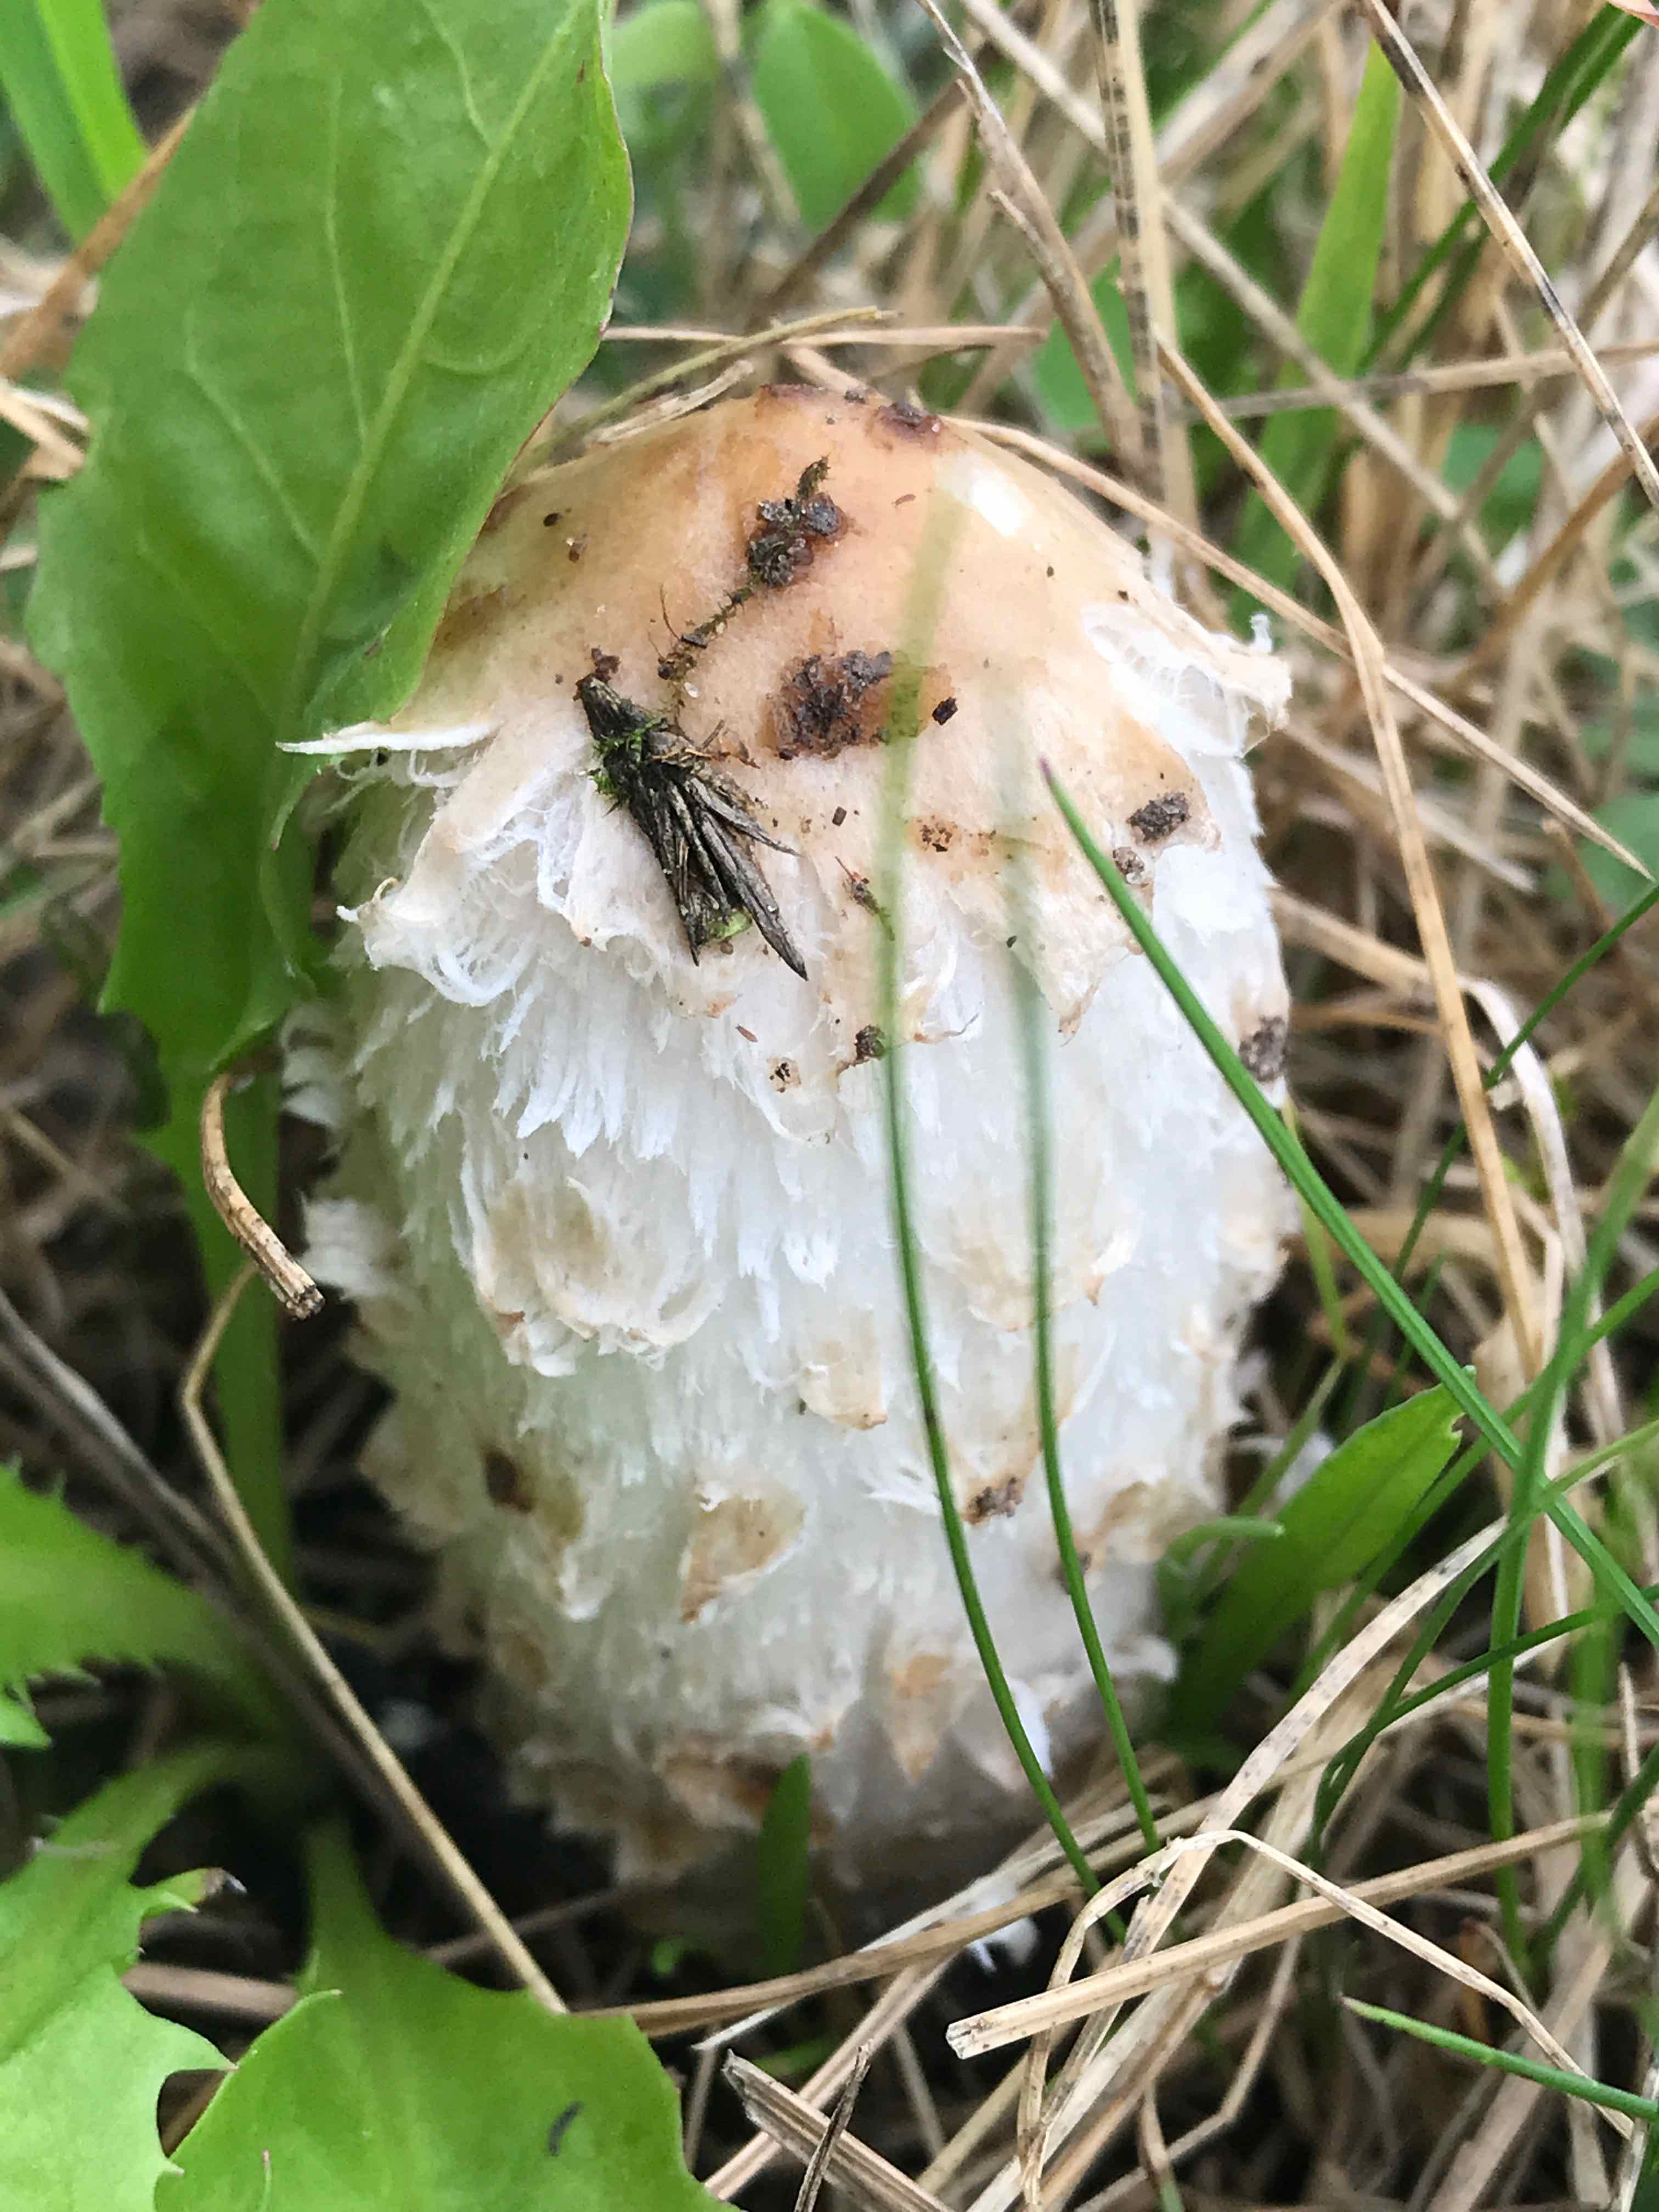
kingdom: Fungi
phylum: Basidiomycota
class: Agaricomycetes
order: Agaricales
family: Agaricaceae
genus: Coprinus
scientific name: Coprinus comatus
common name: stor parykhat
